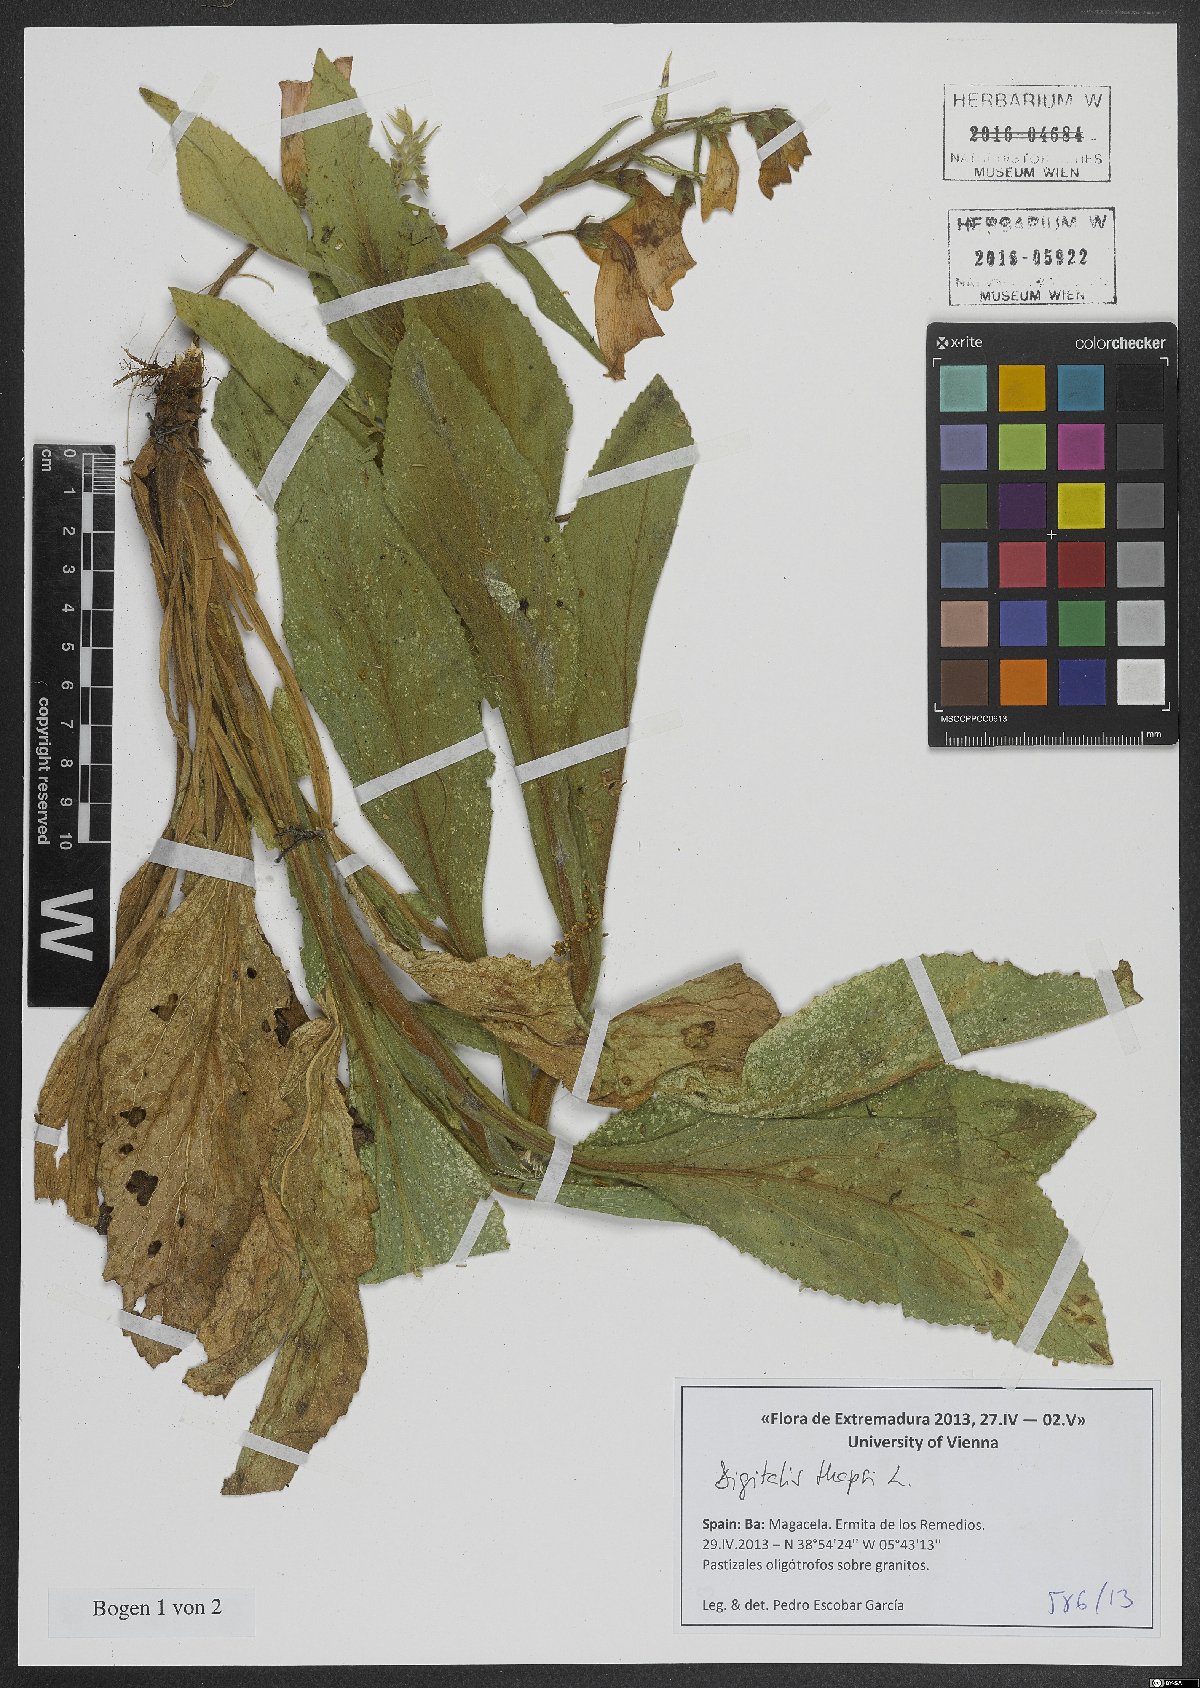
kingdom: Plantae
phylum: Tracheophyta
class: Magnoliopsida
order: Lamiales
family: Plantaginaceae
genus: Digitalis
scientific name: Digitalis thapsi
